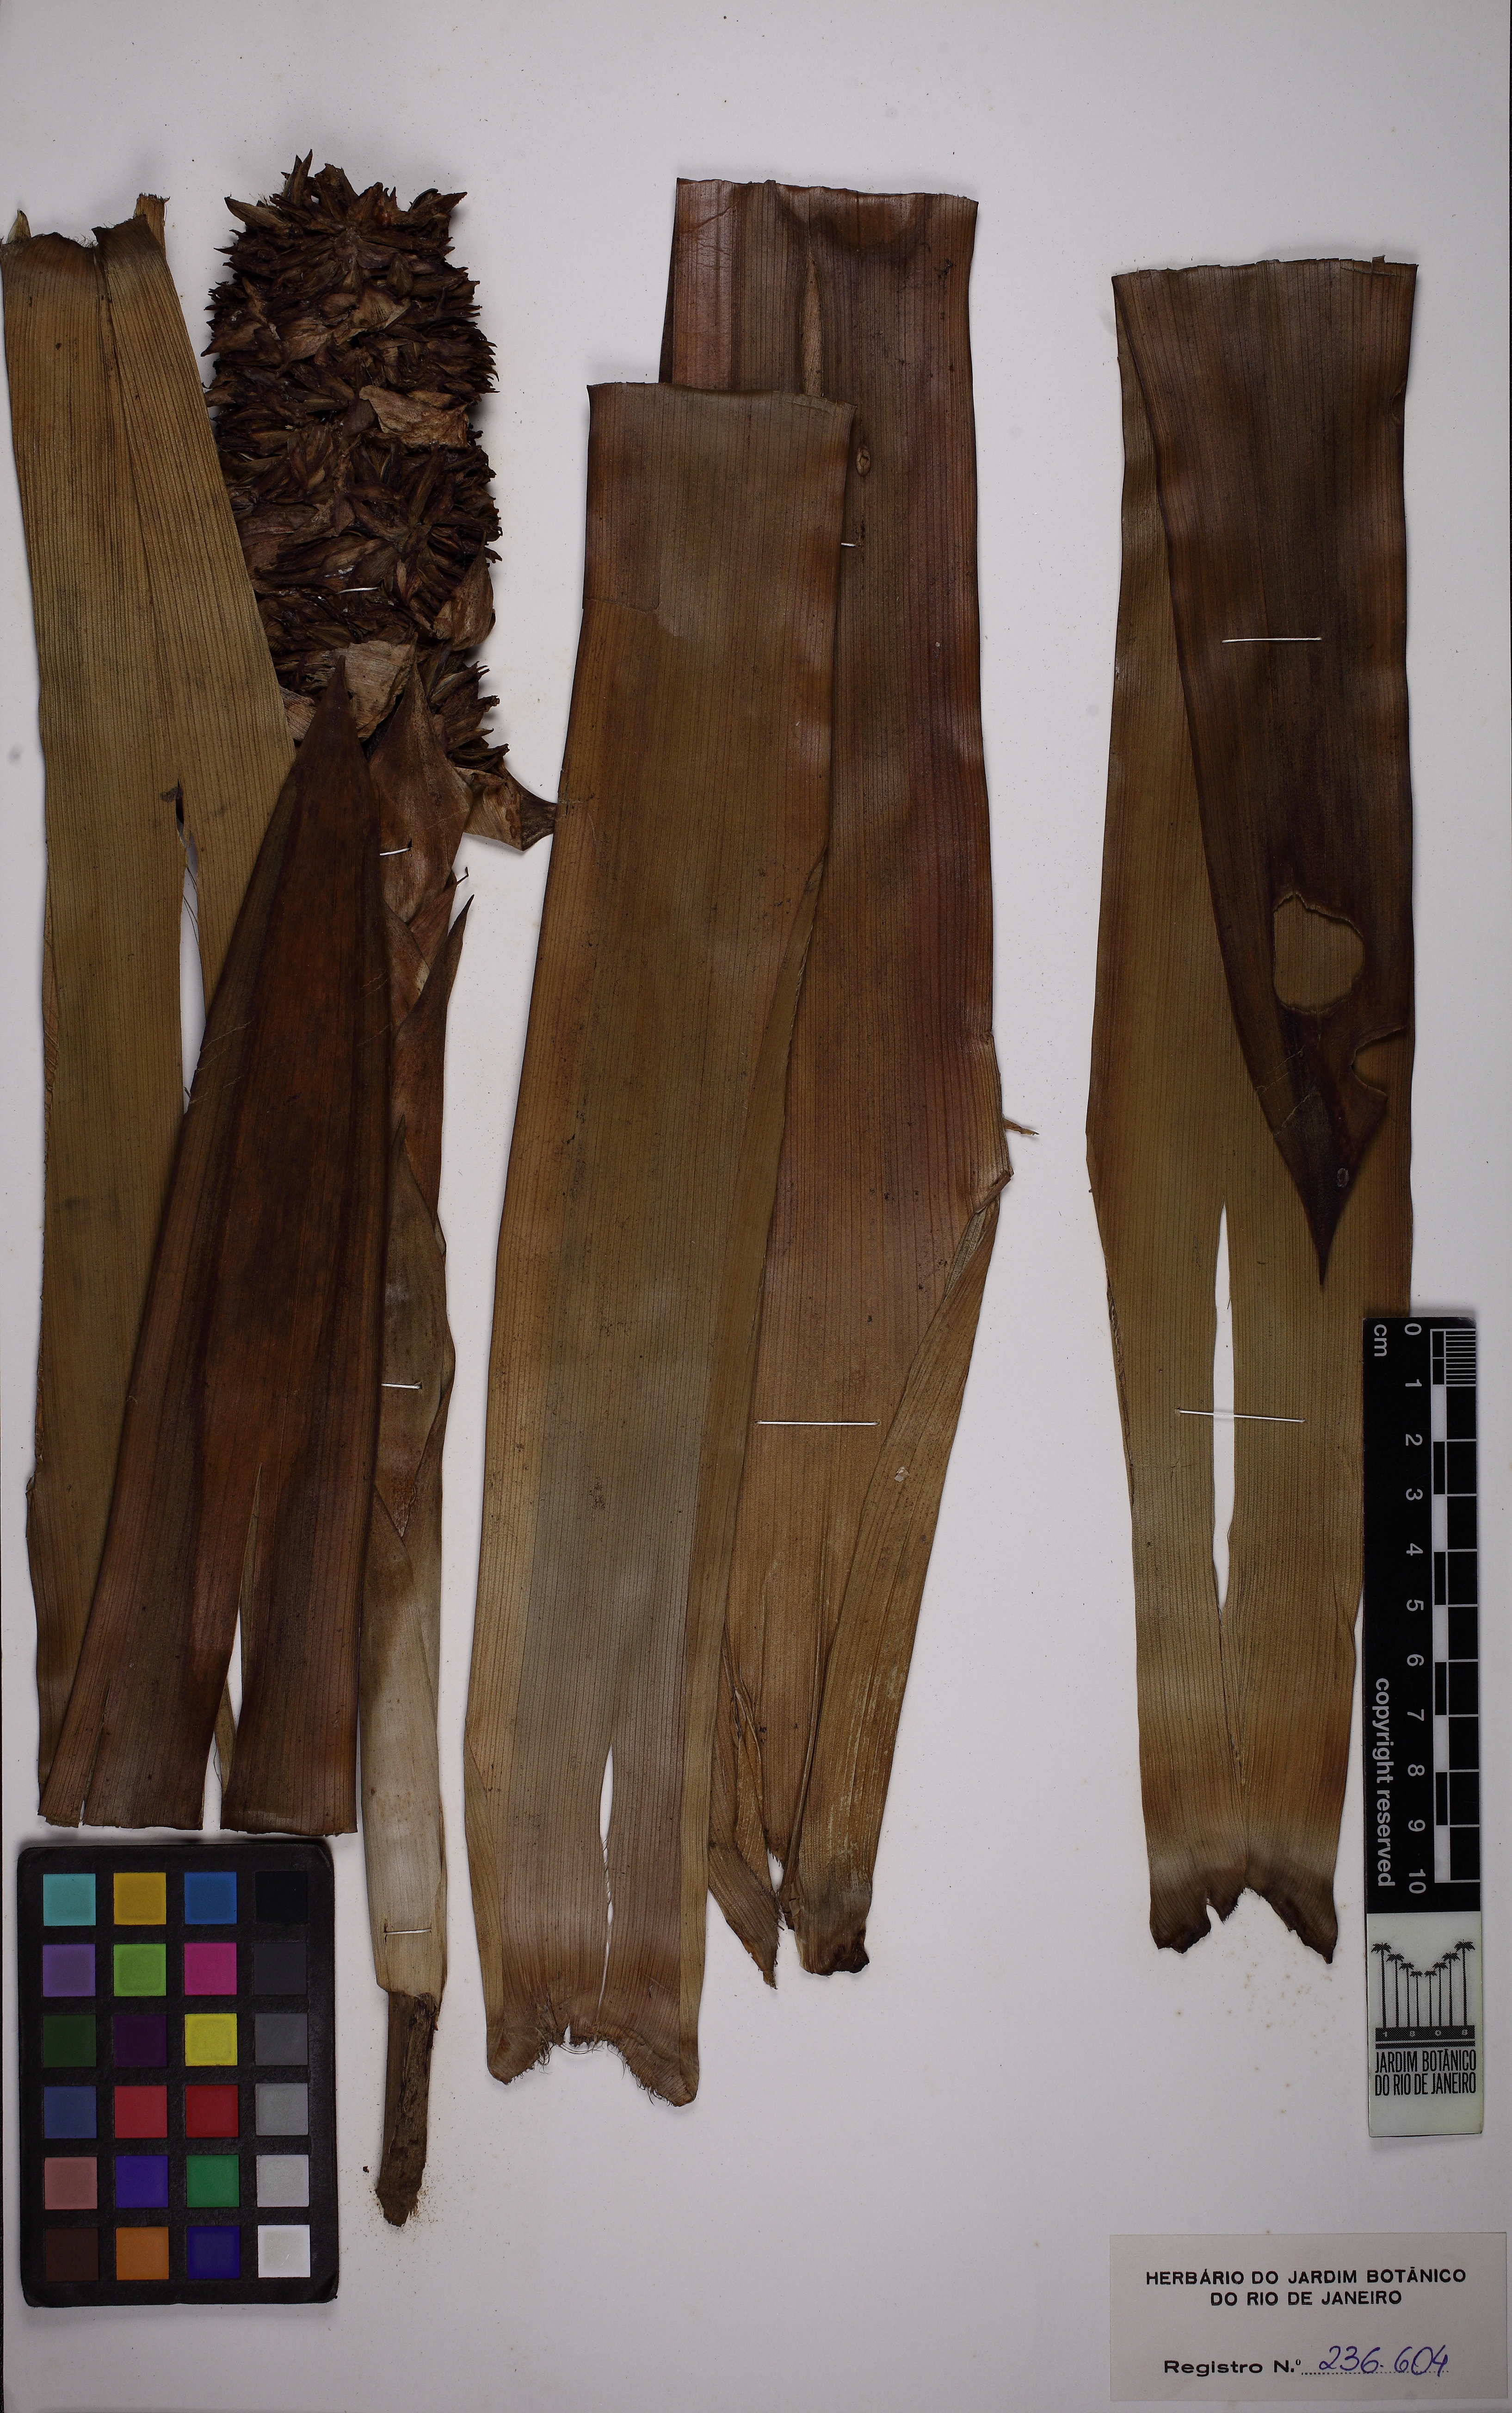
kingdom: Plantae
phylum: Tracheophyta
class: Liliopsida
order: Poales
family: Bromeliaceae
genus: Guzmania
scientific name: Guzmania nubicola
